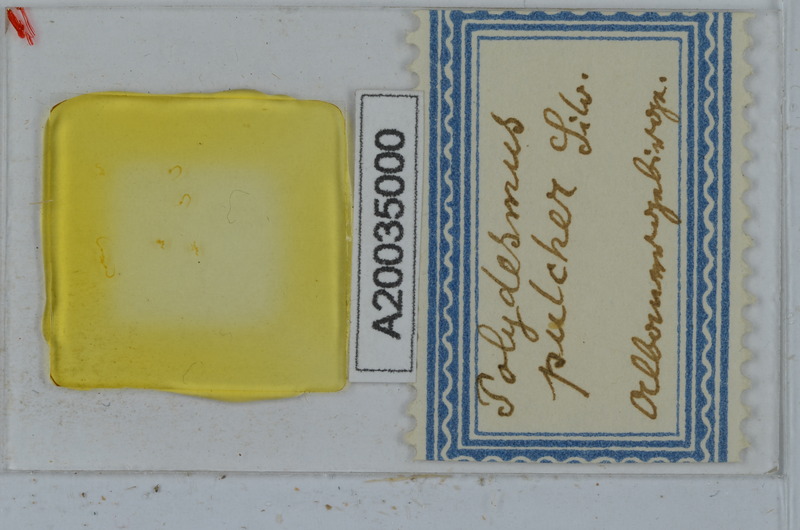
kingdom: Animalia
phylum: Arthropoda
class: Diplopoda
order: Polydesmida
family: Polydesmidae
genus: Polydesmus
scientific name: Polydesmus pulcher
